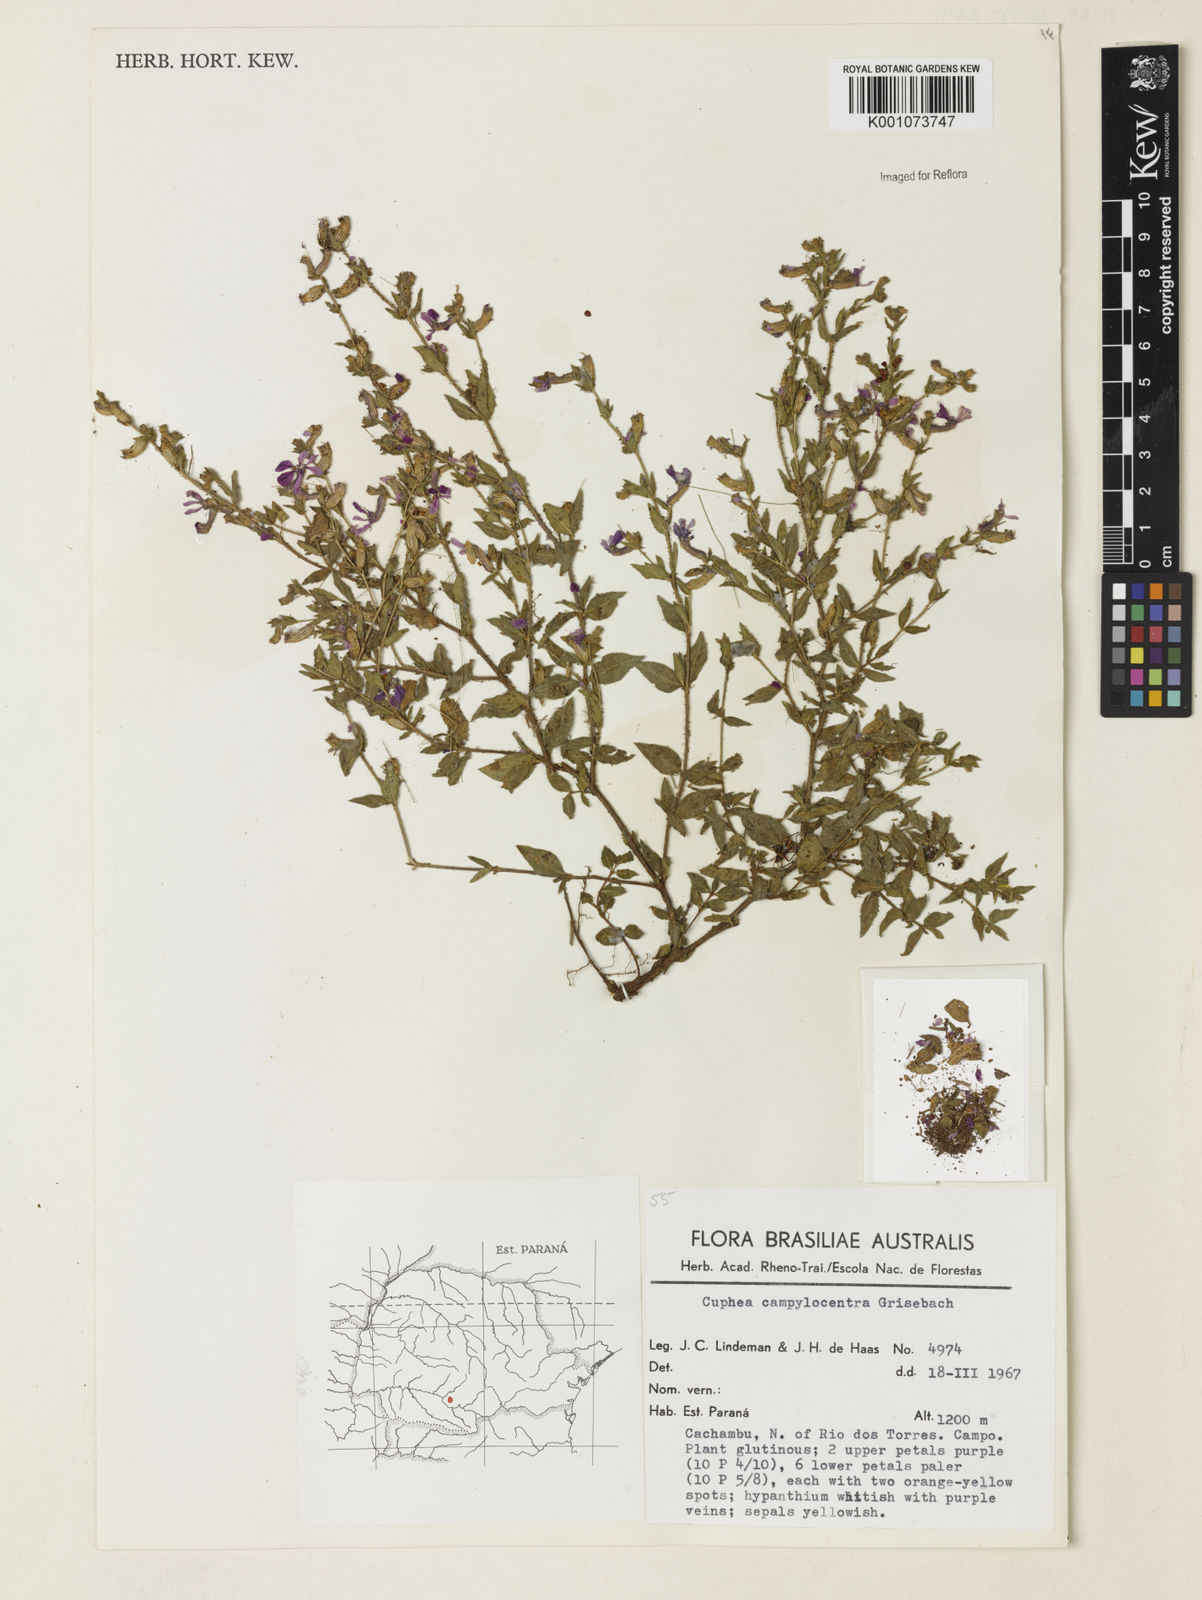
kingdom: Plantae
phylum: Tracheophyta
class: Magnoliopsida
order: Myrtales
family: Lythraceae
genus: Cuphea
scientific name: Cuphea campylocentra
